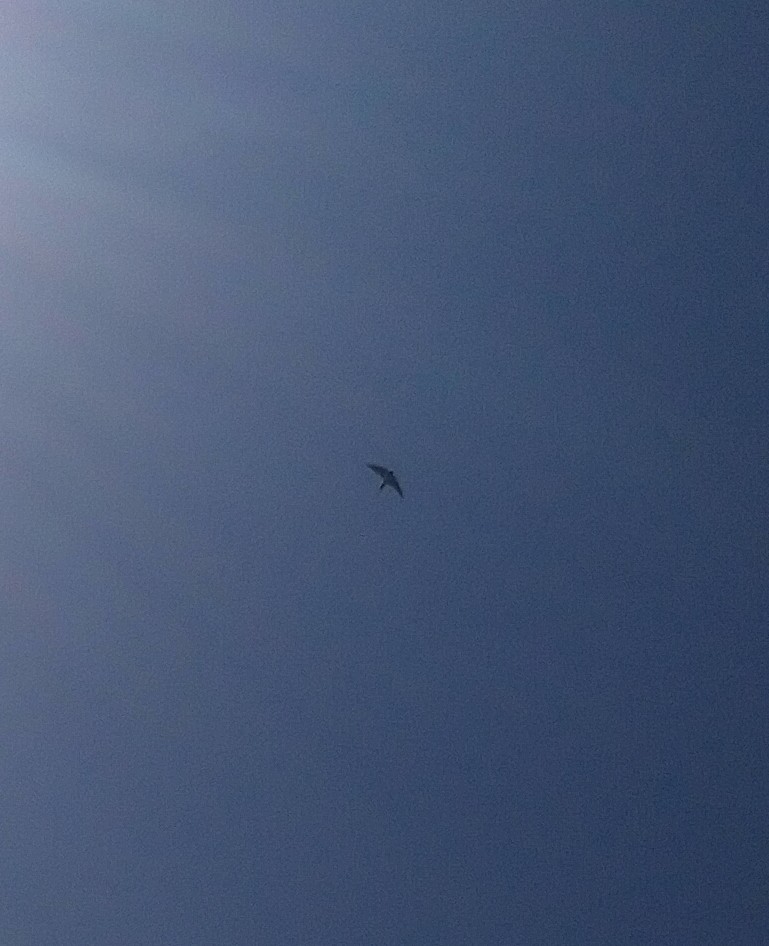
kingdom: Animalia
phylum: Chordata
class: Aves
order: Passeriformes
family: Hirundinidae
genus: Hirundo
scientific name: Hirundo rustica
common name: Landsvale
